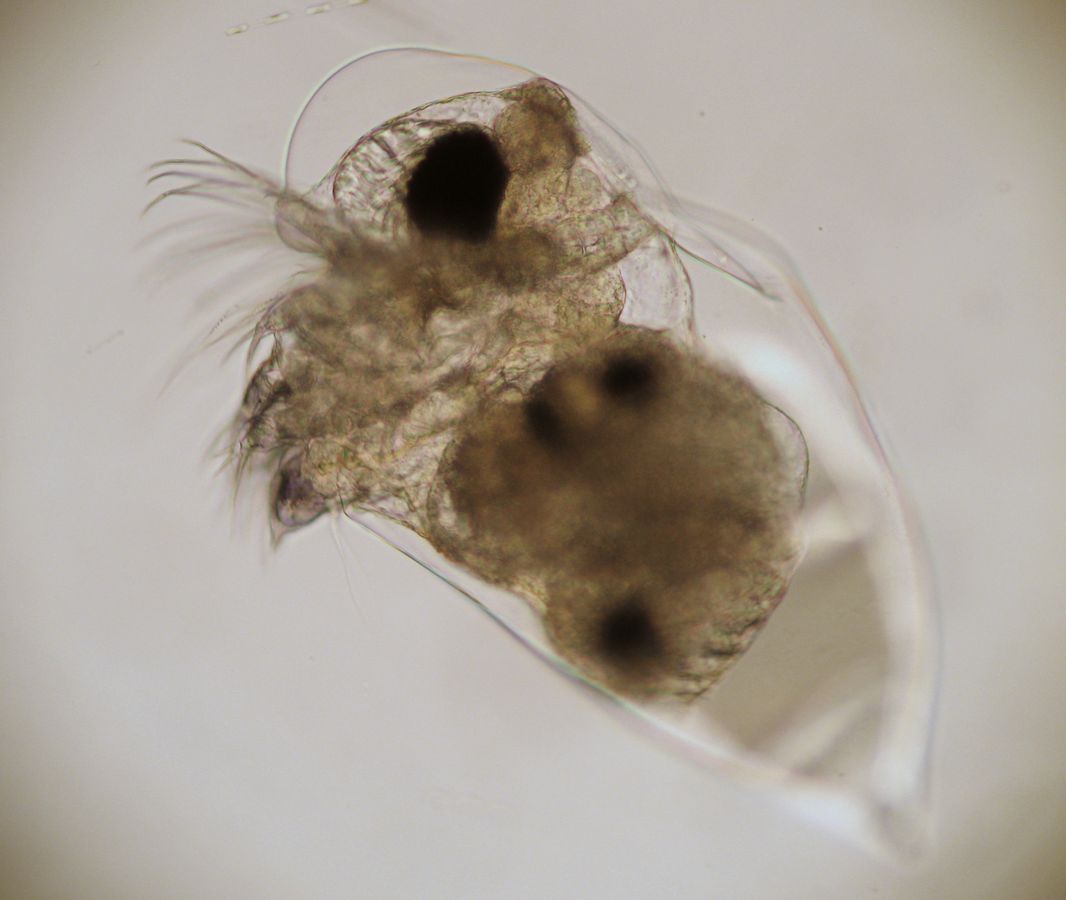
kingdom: Animalia
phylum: Arthropoda
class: Branchiopoda
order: Diplostraca
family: Podonidae
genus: Evadne
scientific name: Evadne nordmanni
